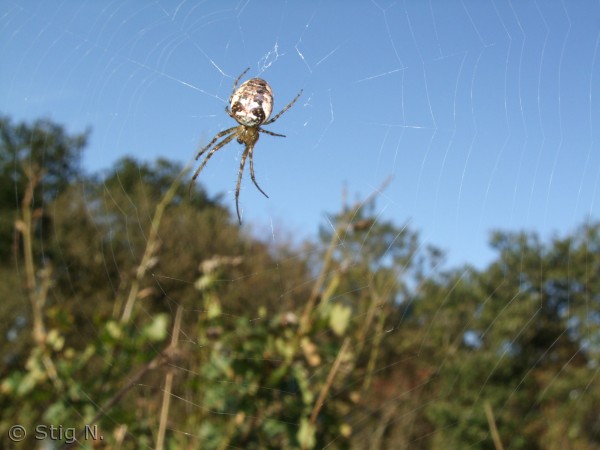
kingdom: Animalia
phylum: Arthropoda
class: Arachnida
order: Araneae
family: Araneidae
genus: Araneus
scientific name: Araneus diadematus
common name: Korsedderkop
